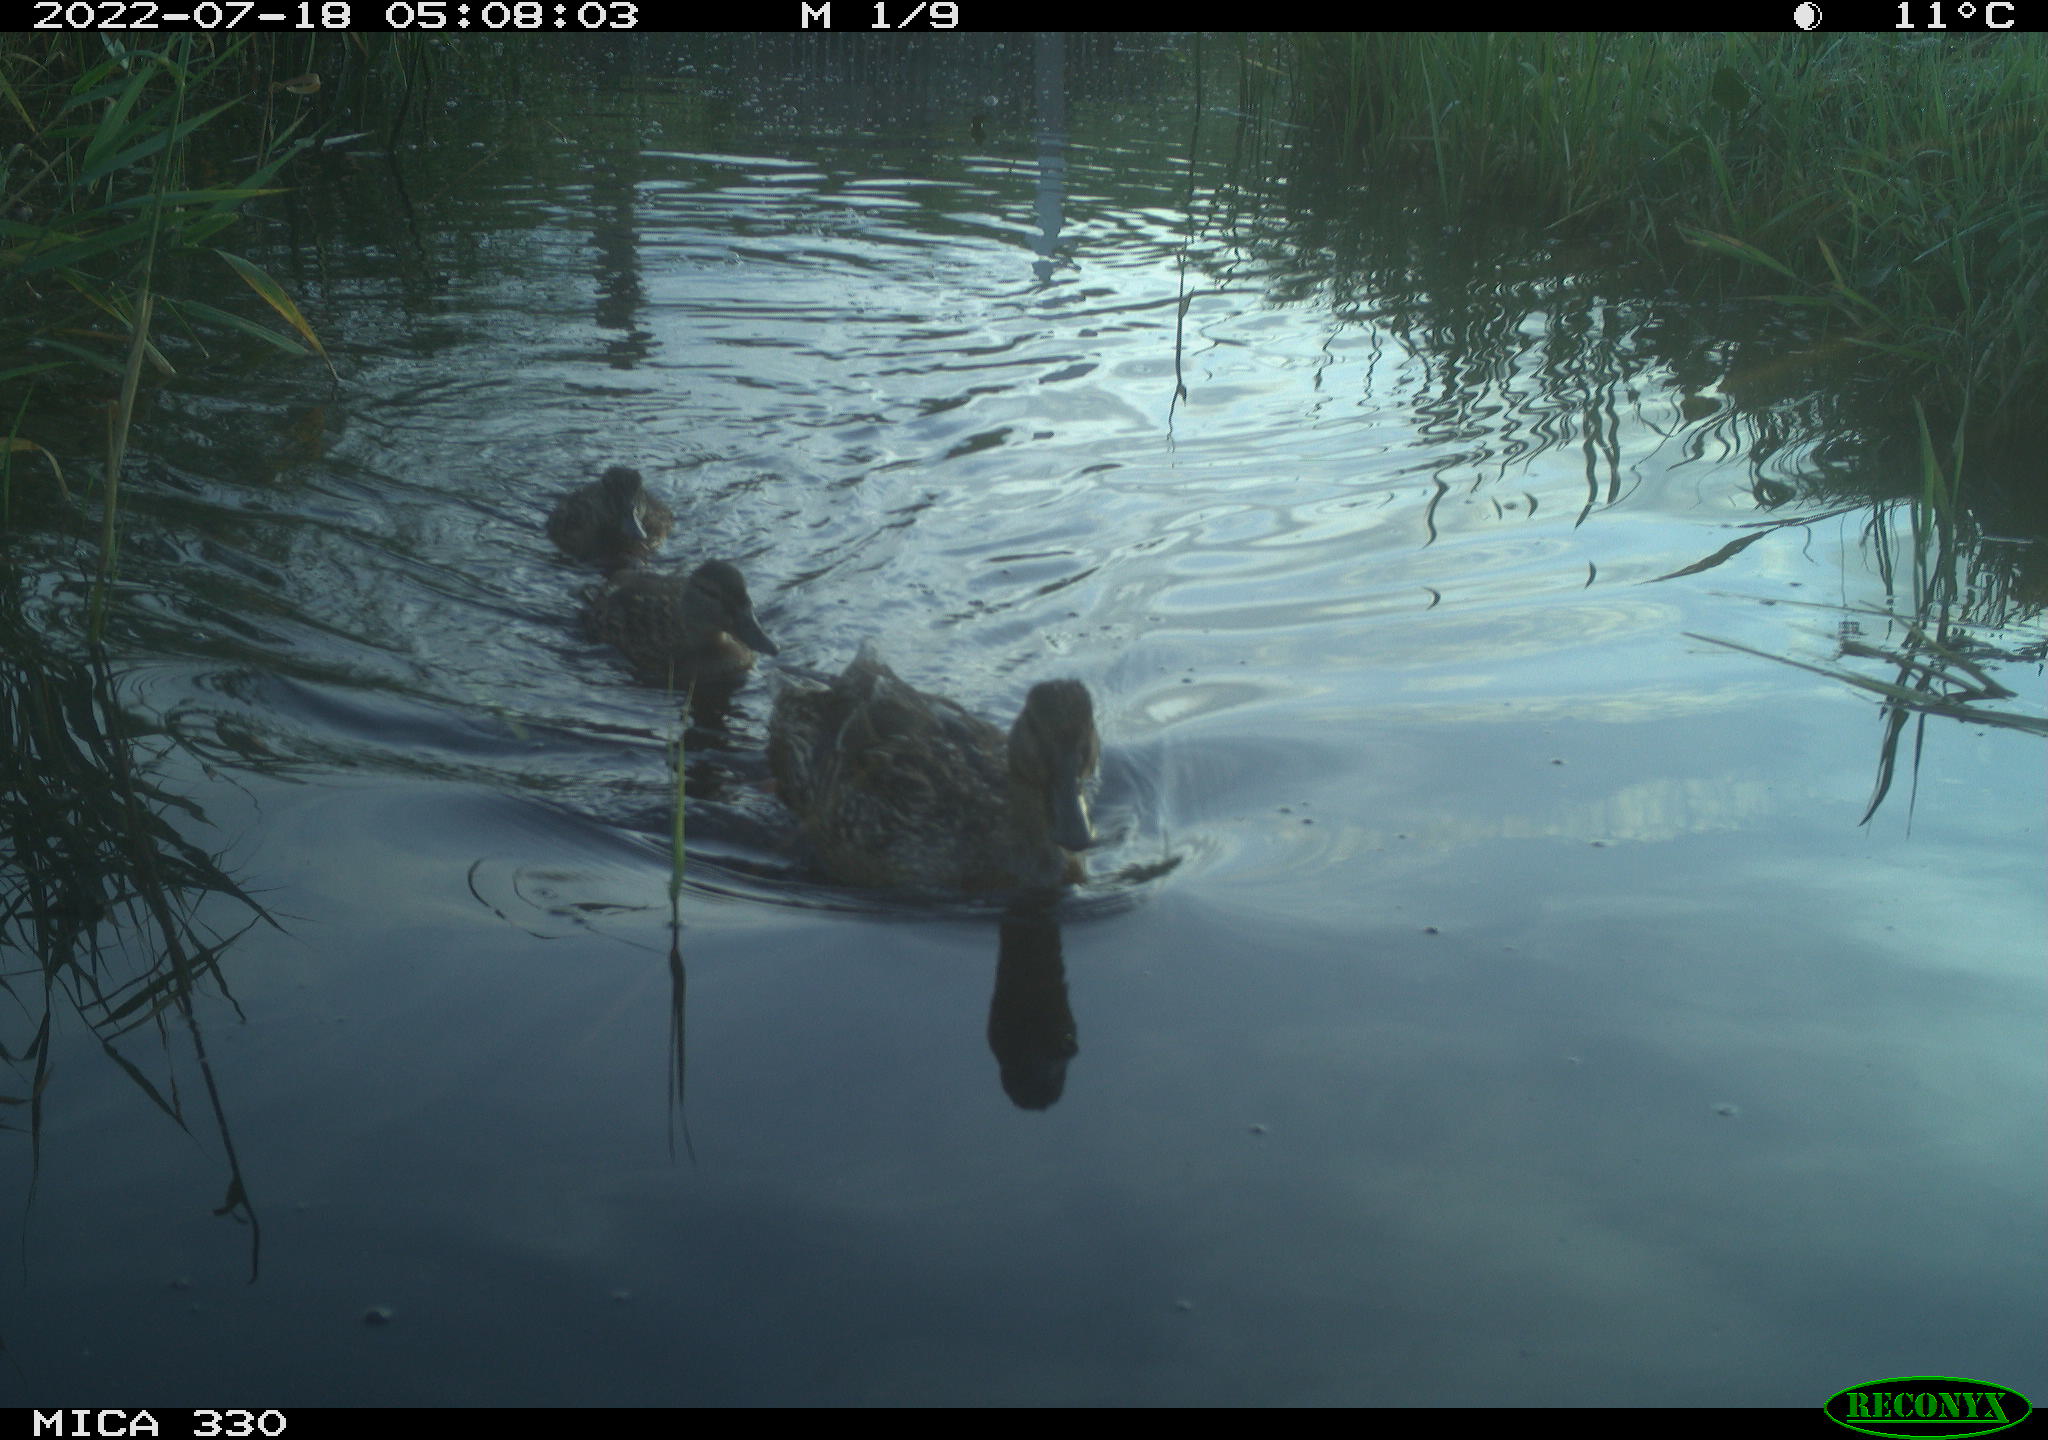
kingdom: Animalia
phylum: Chordata
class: Aves
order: Anseriformes
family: Anatidae
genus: Anas
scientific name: Anas platyrhynchos
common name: Mallard
